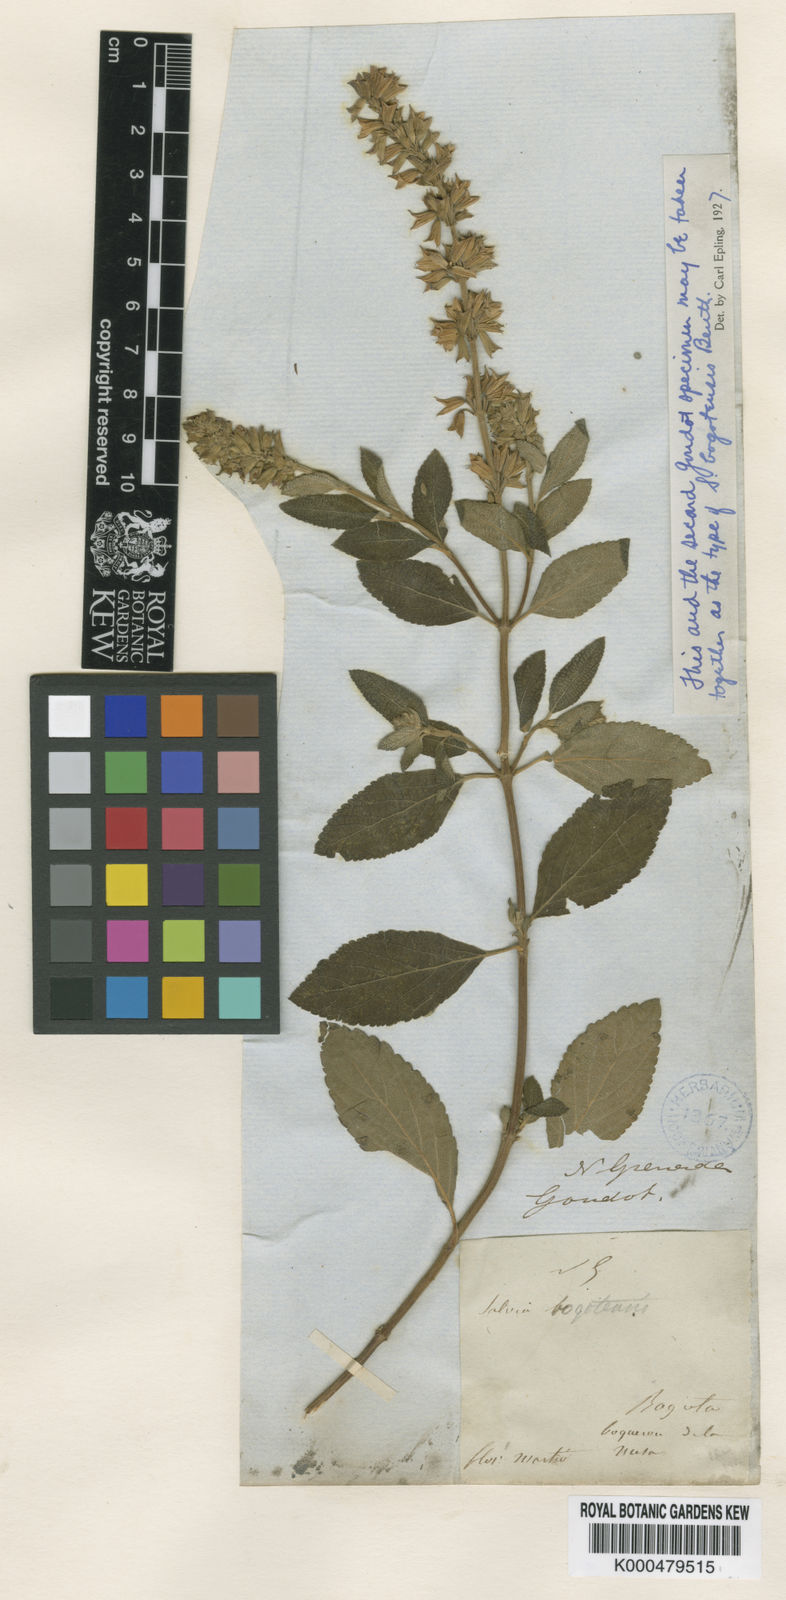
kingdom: Plantae
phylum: Tracheophyta
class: Magnoliopsida
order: Lamiales
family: Lamiaceae
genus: Salvia
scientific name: Salvia bogotensis
